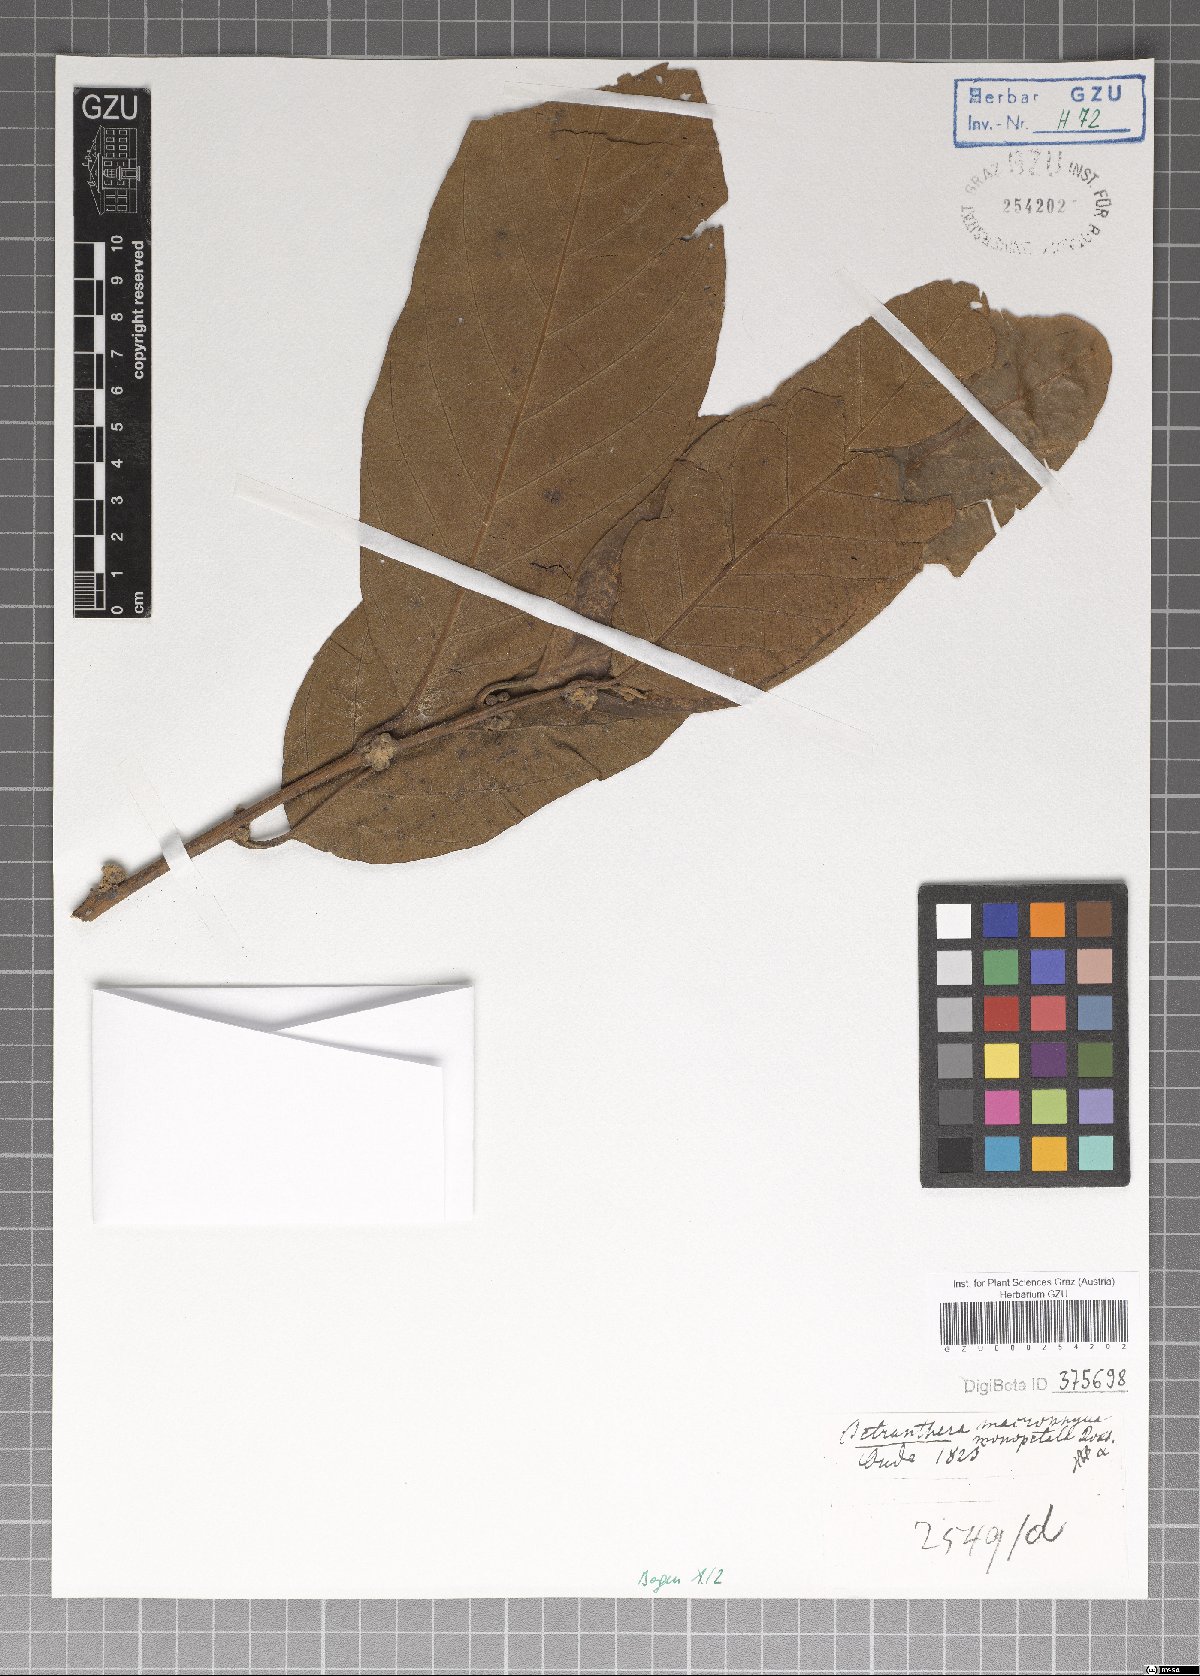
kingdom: Plantae
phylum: Tracheophyta
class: Magnoliopsida
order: Laurales
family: Lauraceae
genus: Litsea
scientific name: Litsea monopetala
